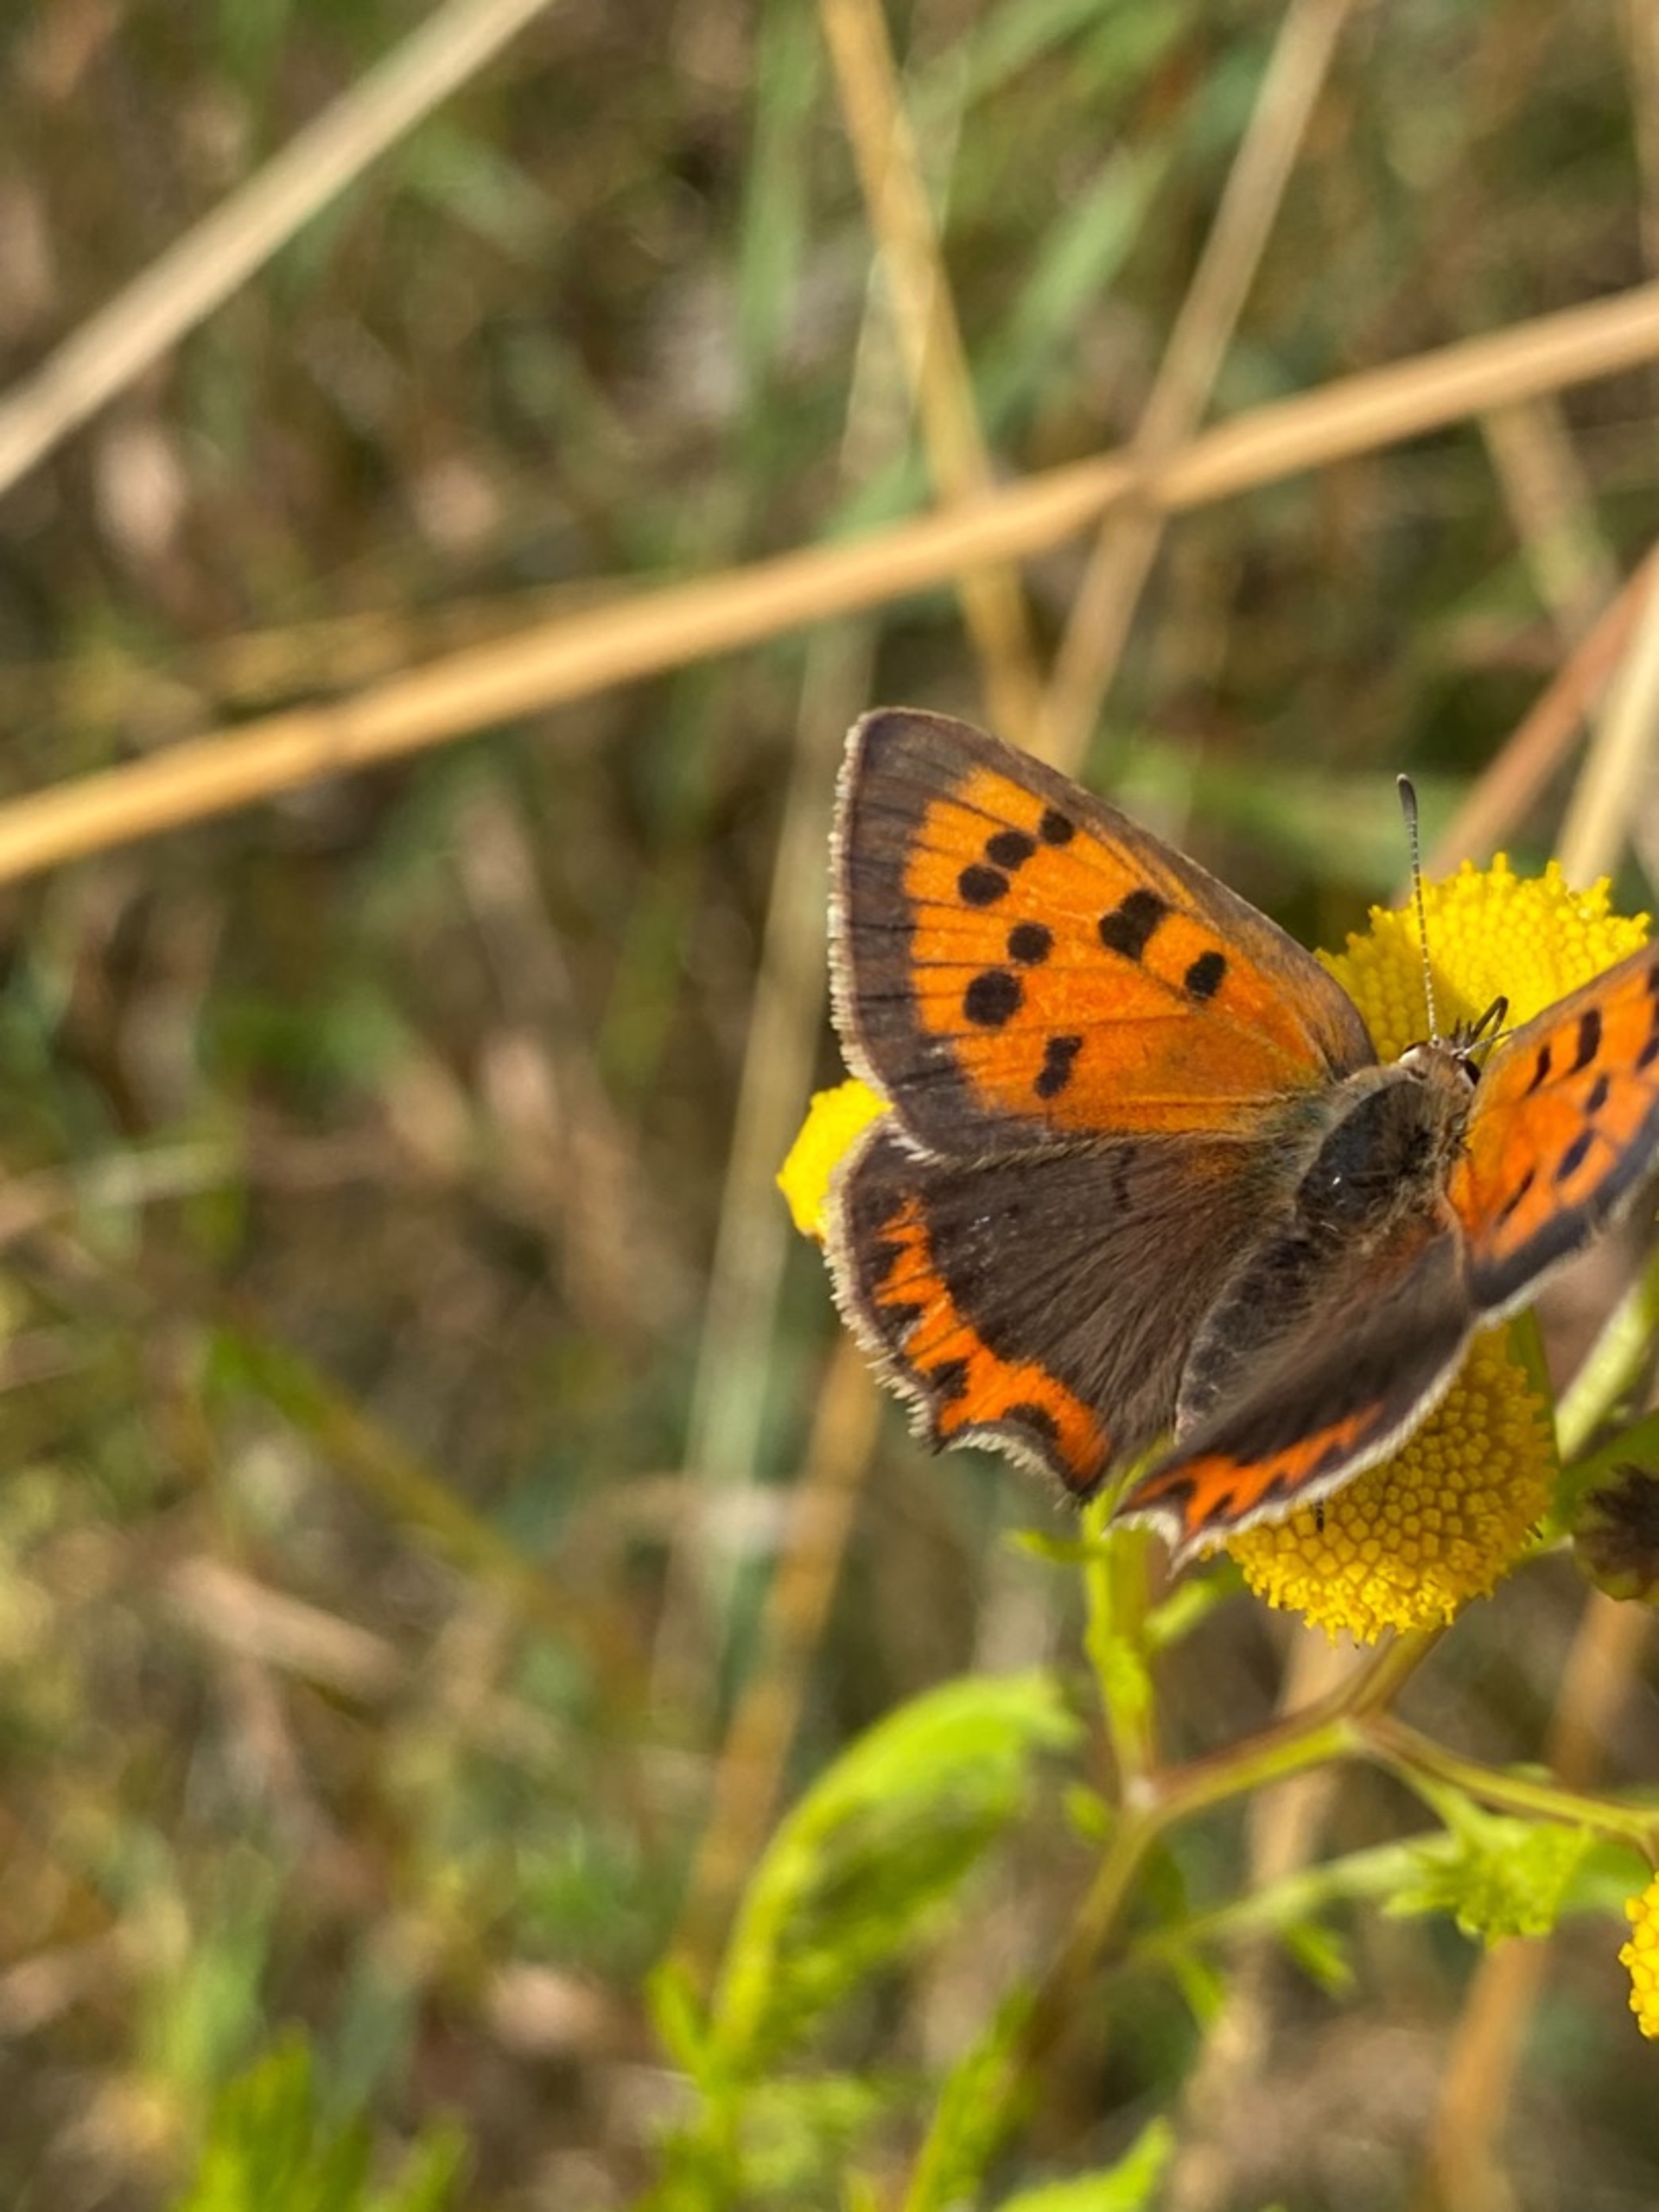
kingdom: Animalia
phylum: Arthropoda
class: Insecta
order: Lepidoptera
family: Lycaenidae
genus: Lycaena
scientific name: Lycaena phlaeas
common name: Lille ildfugl
